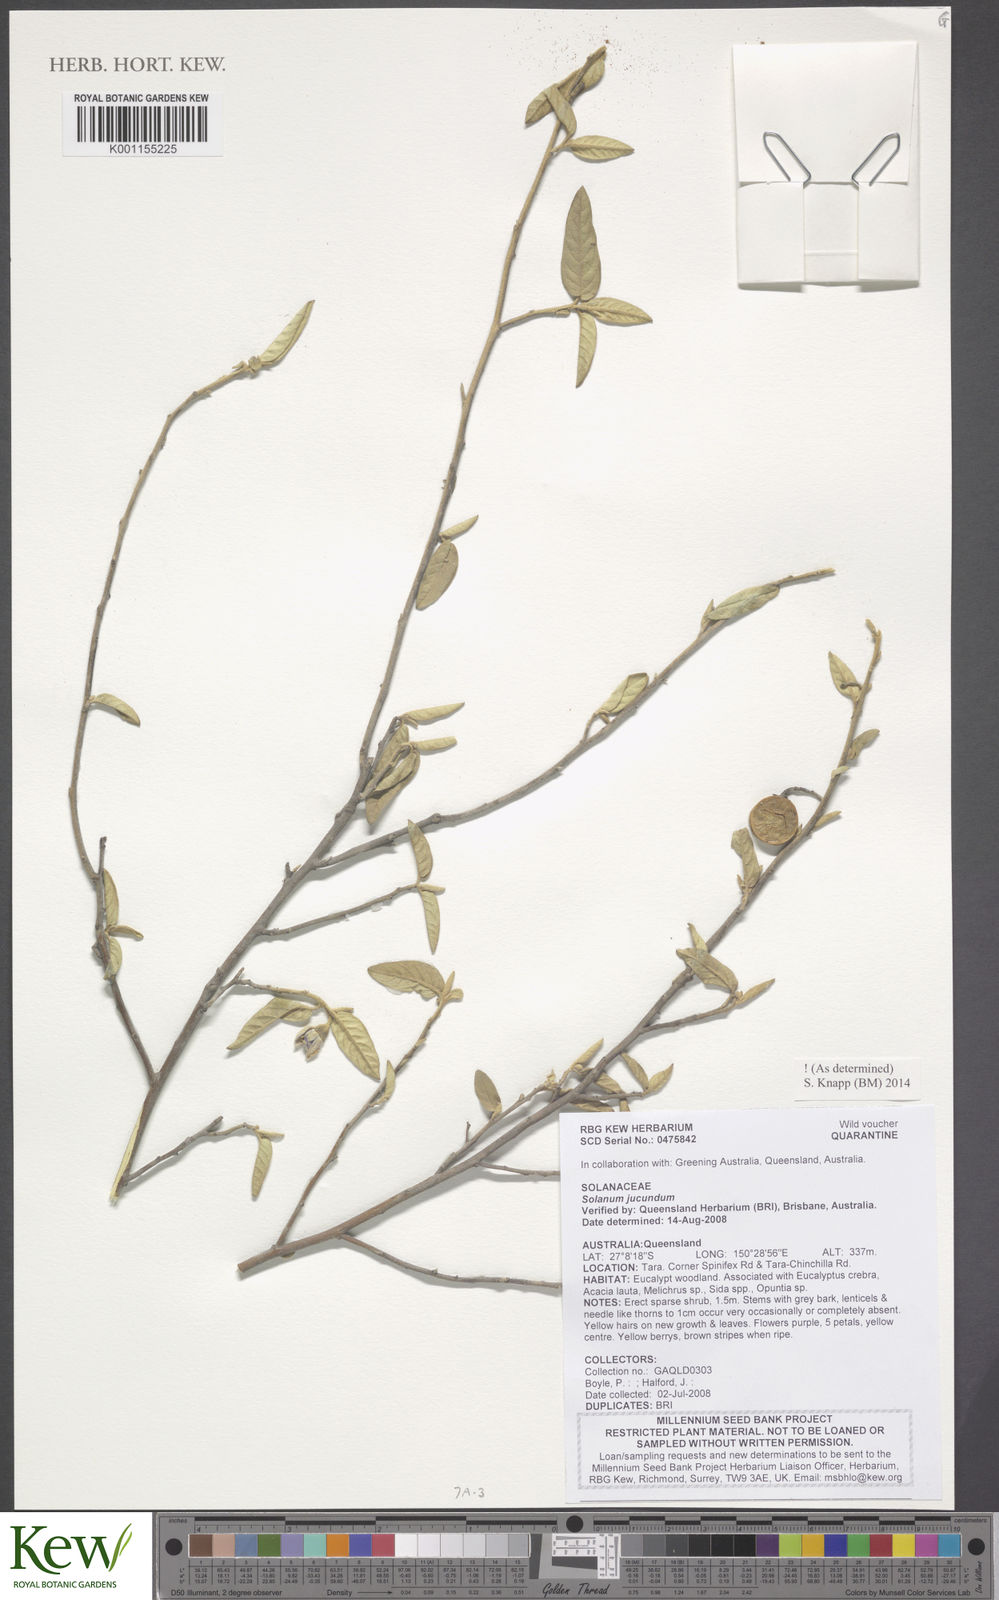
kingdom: Plantae
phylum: Tracheophyta
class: Magnoliopsida
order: Solanales
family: Solanaceae
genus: Solanum
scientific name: Solanum jucundum
